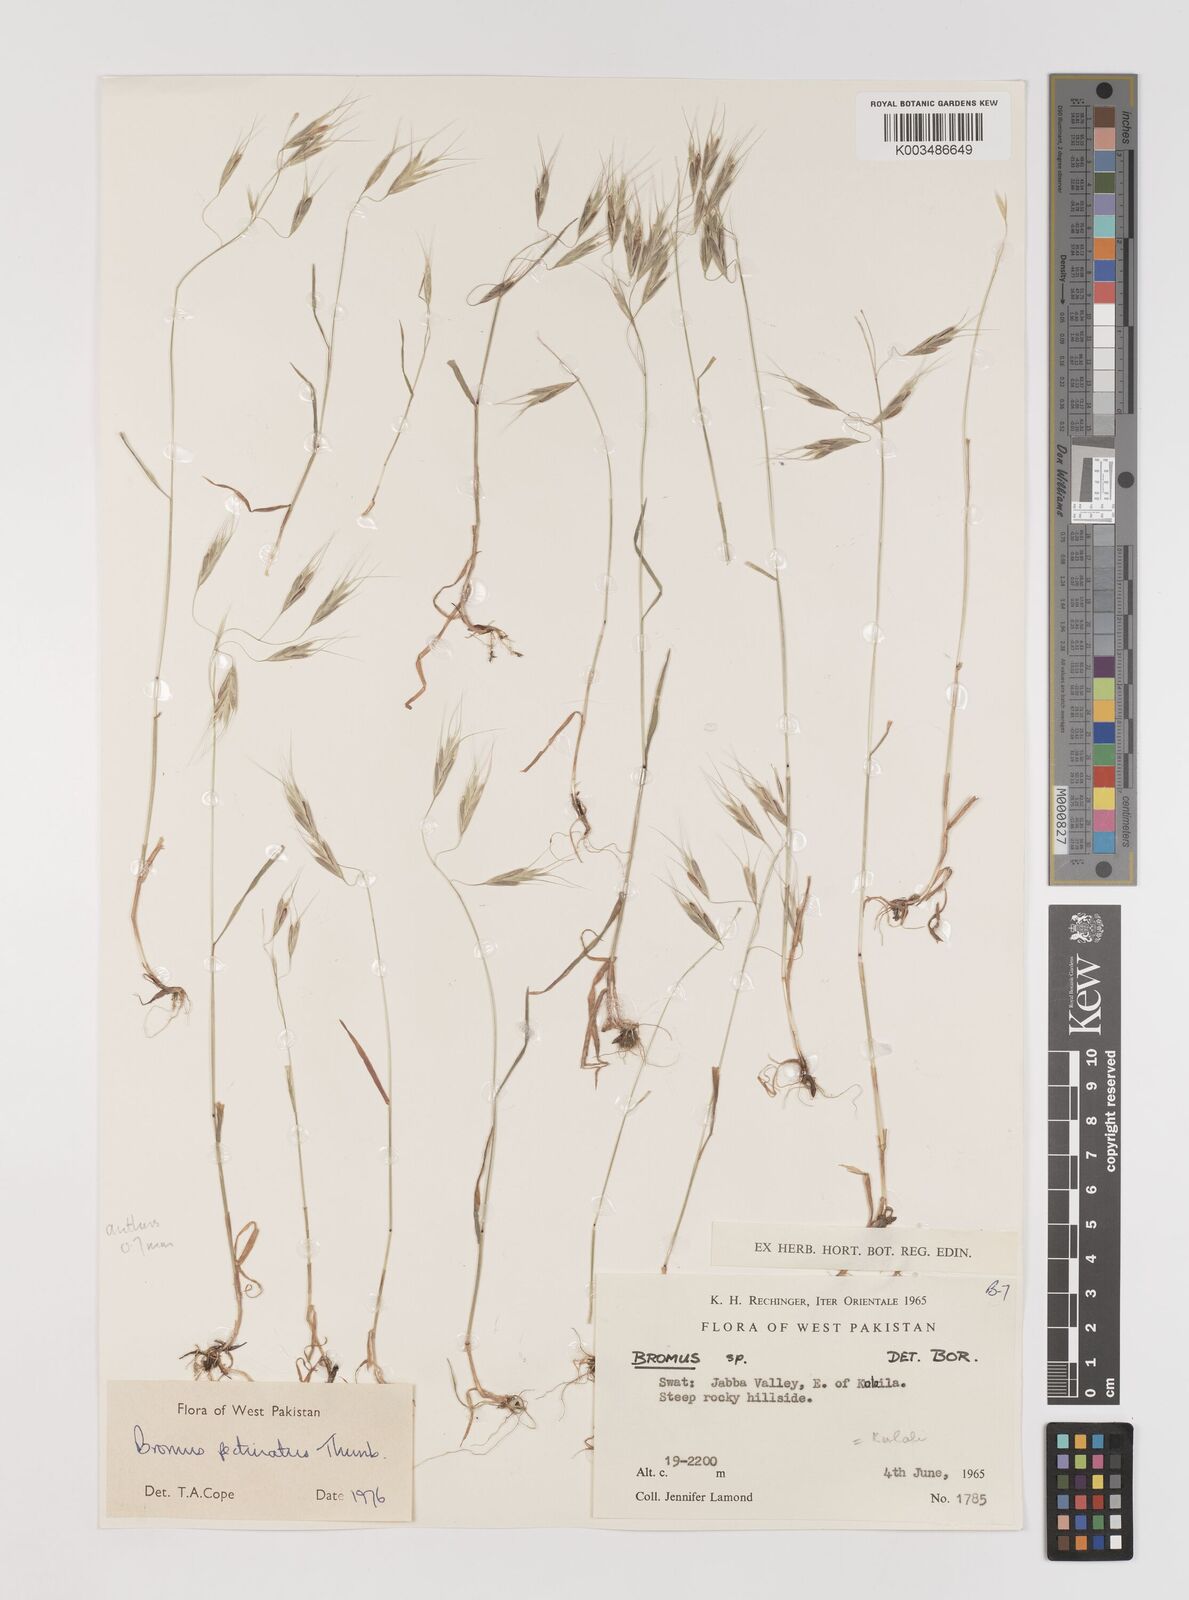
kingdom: Plantae
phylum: Tracheophyta
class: Liliopsida
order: Poales
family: Poaceae
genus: Bromus
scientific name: Bromus pectinatus
